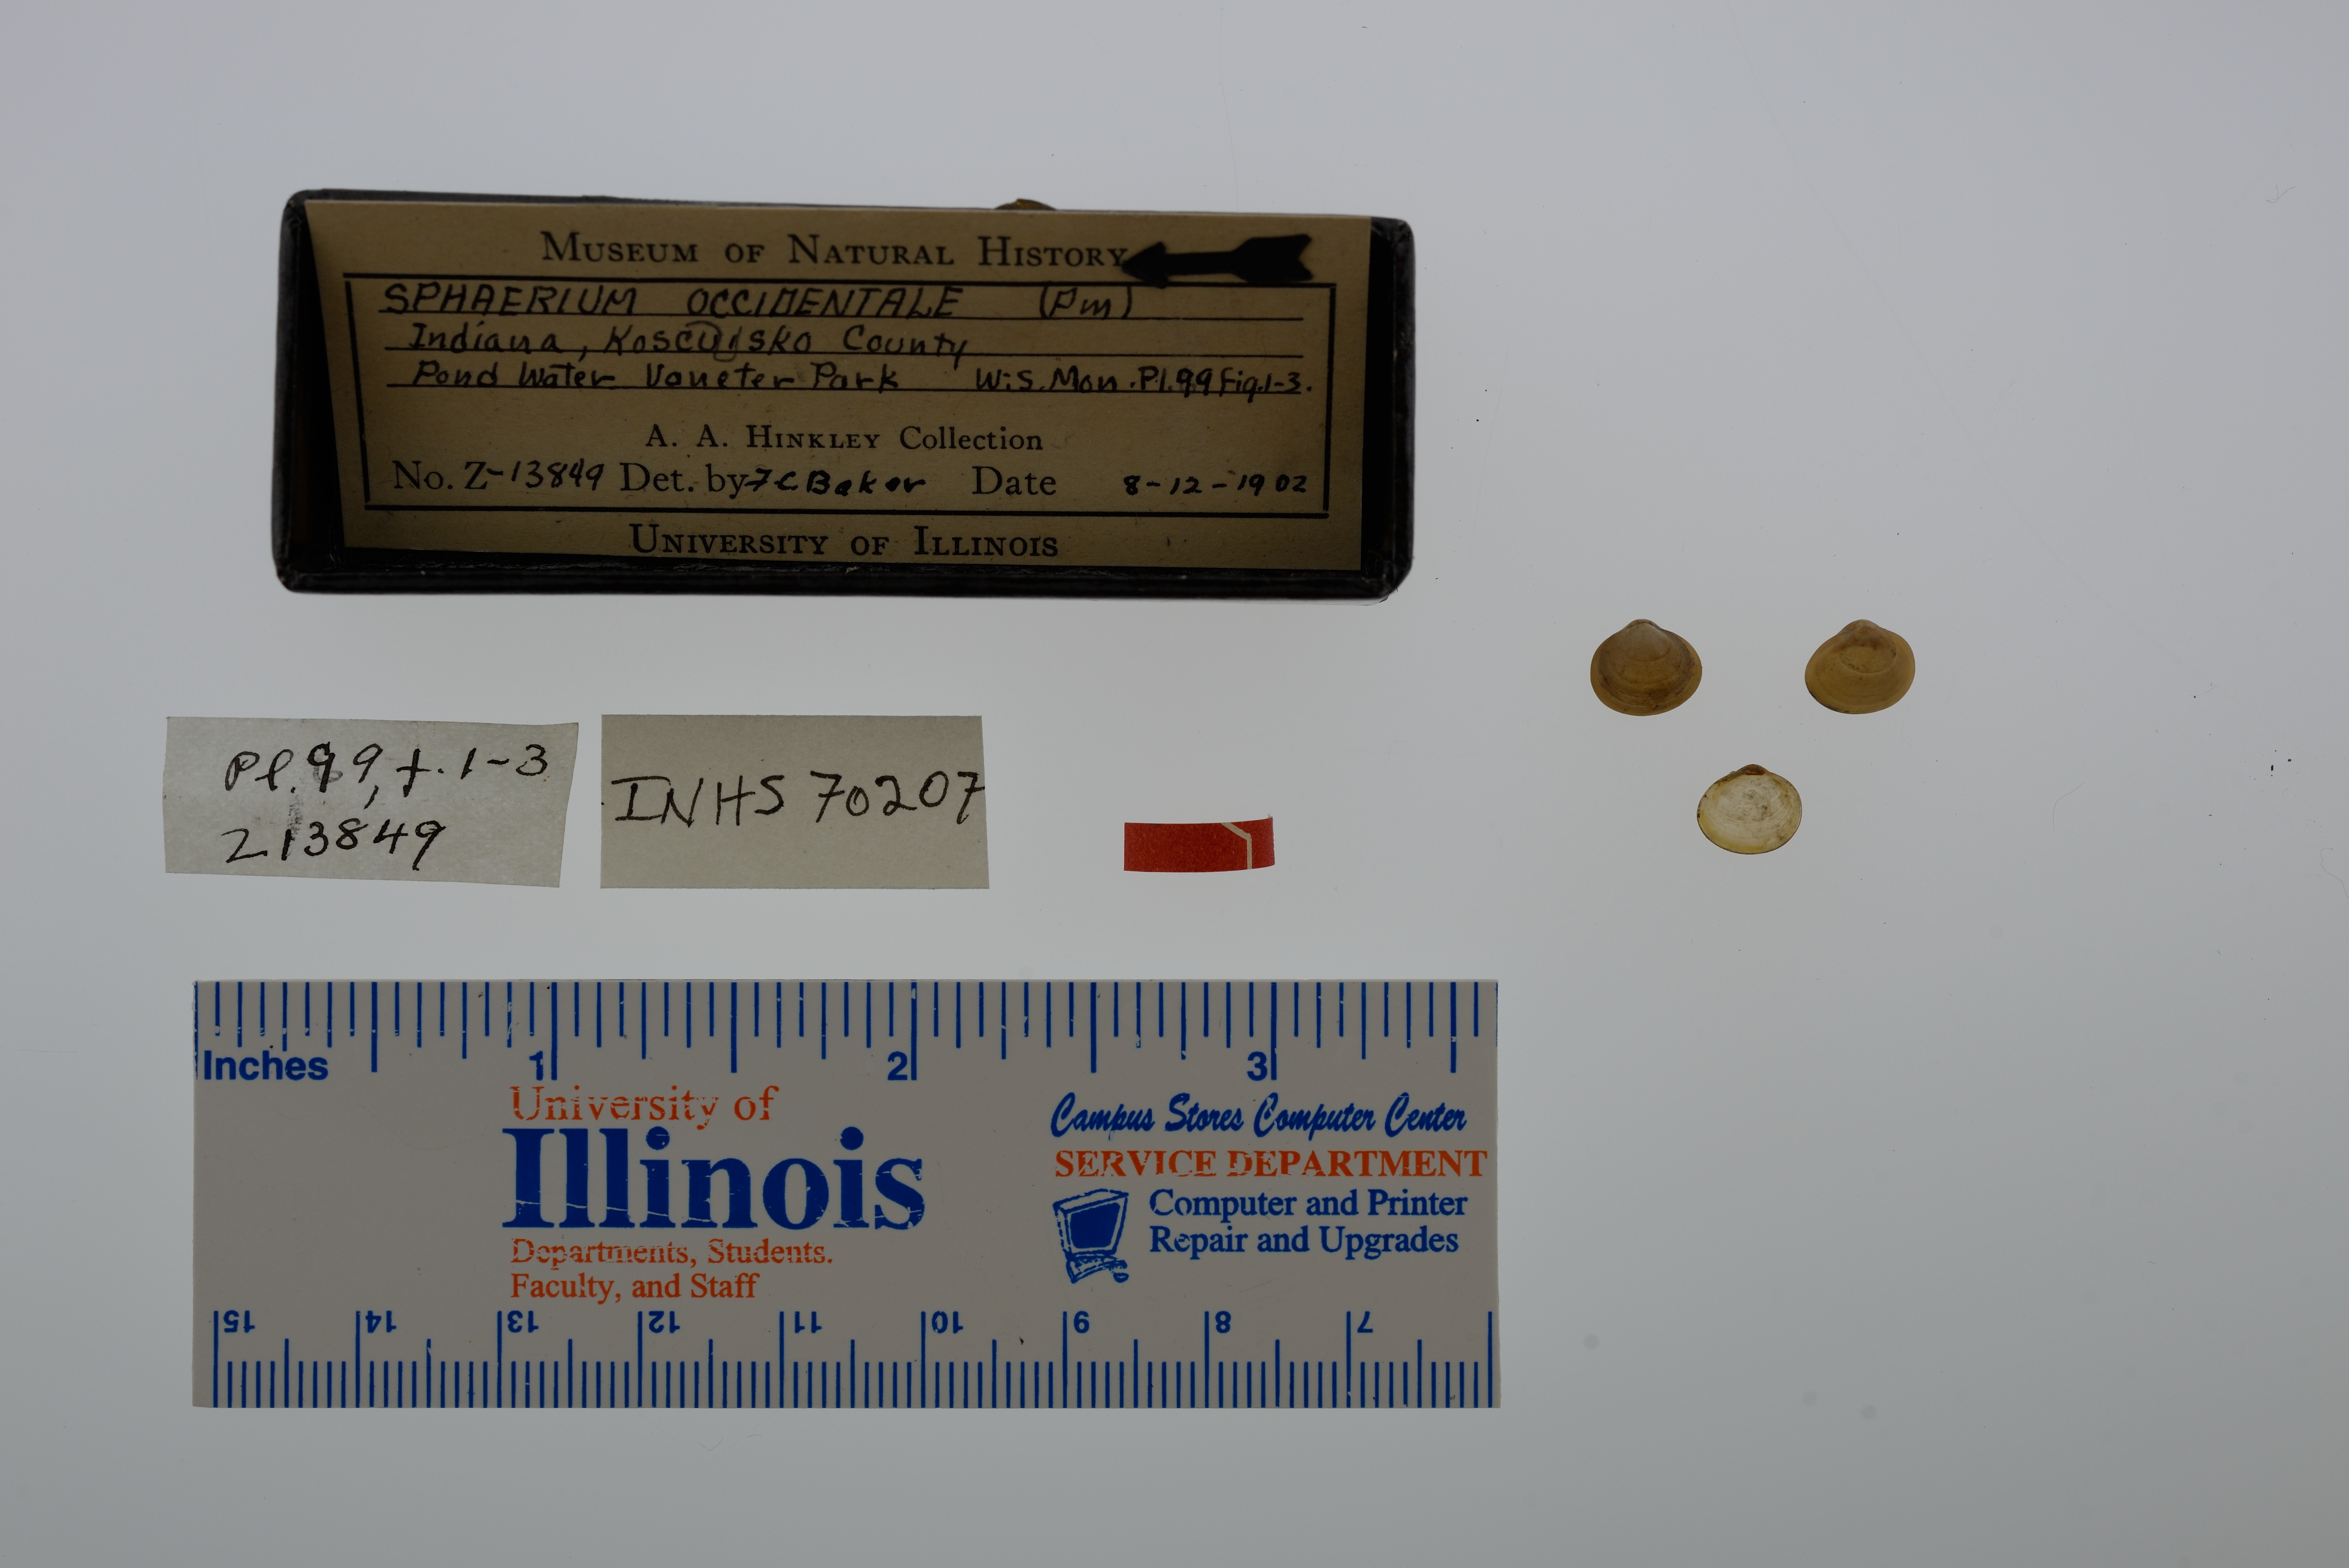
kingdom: Animalia
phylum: Mollusca
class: Bivalvia
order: Sphaeriida
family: Sphaeriidae
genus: Sphaerium
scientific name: Sphaerium occidentale
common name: Herrington fingernailclam
